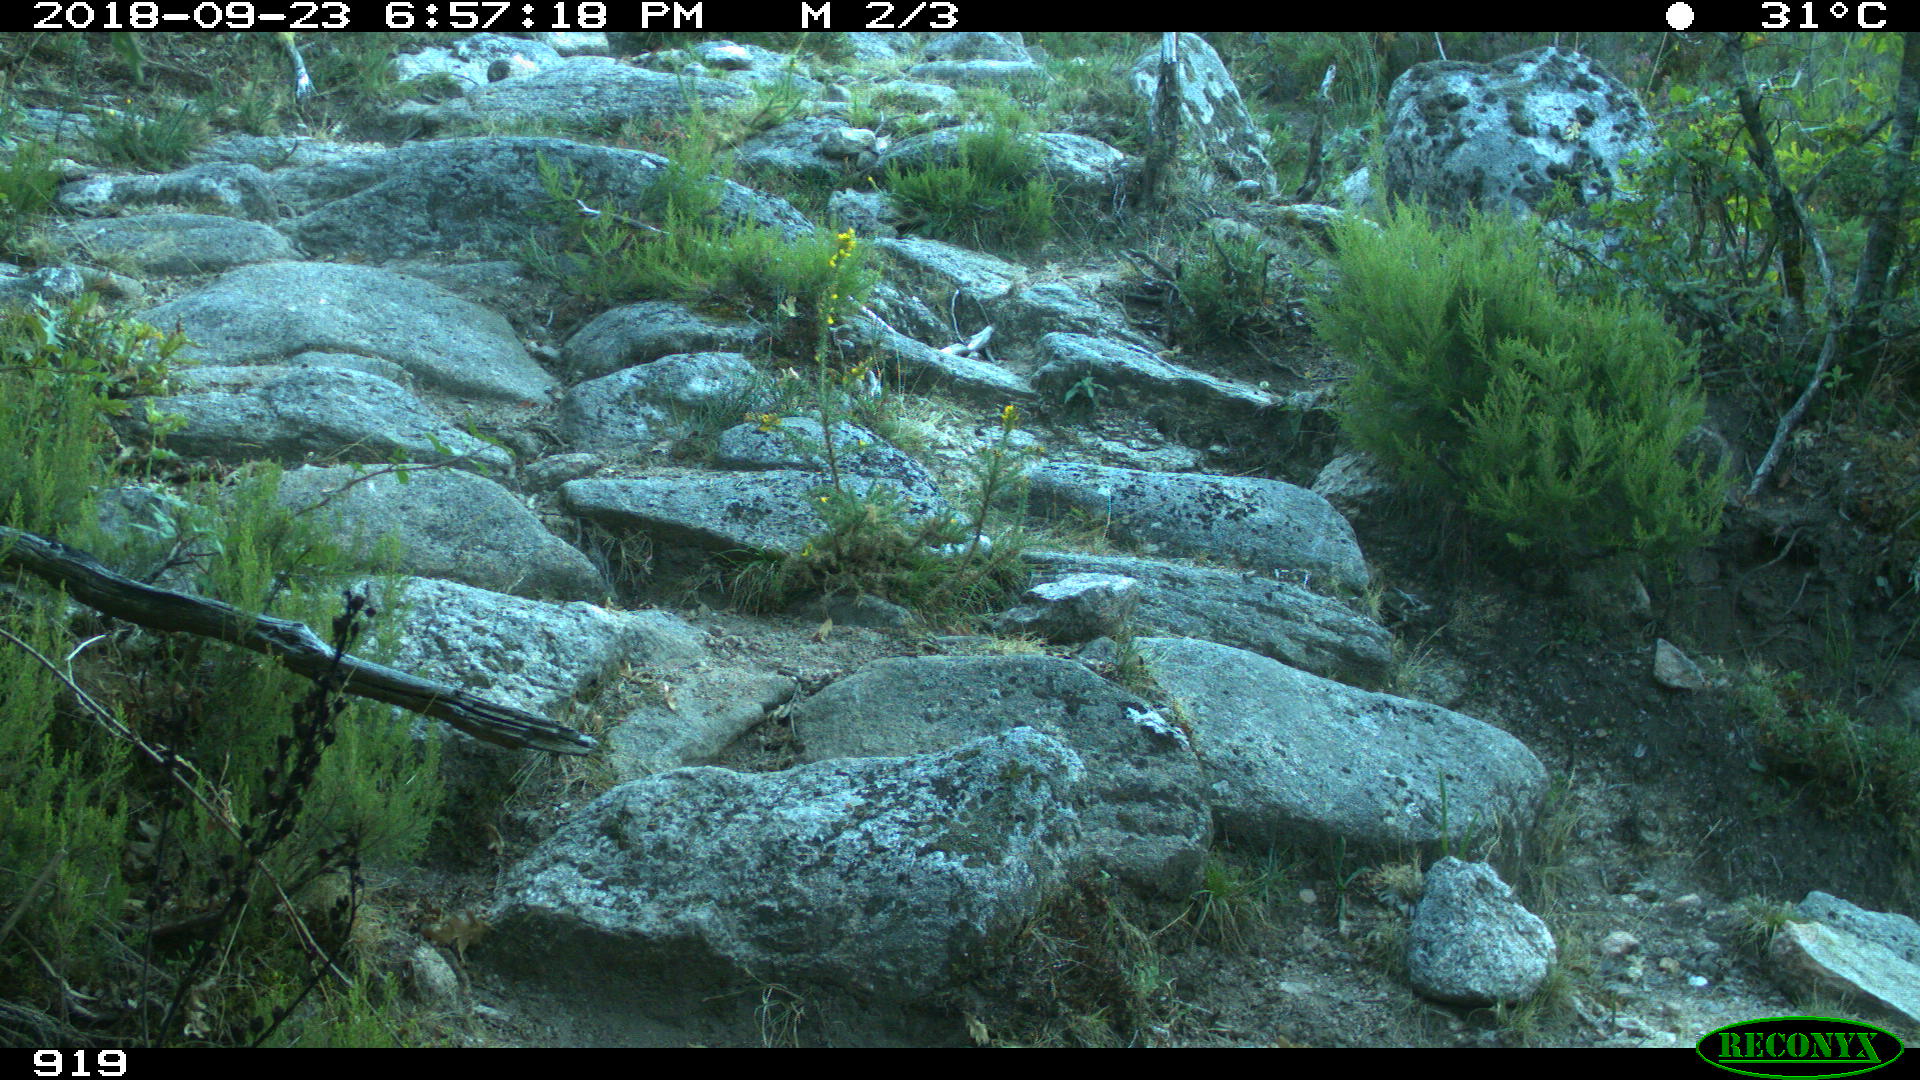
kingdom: Animalia
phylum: Chordata
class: Mammalia
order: Artiodactyla
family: Bovidae
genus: Bos
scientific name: Bos taurus
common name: Domesticated cattle
